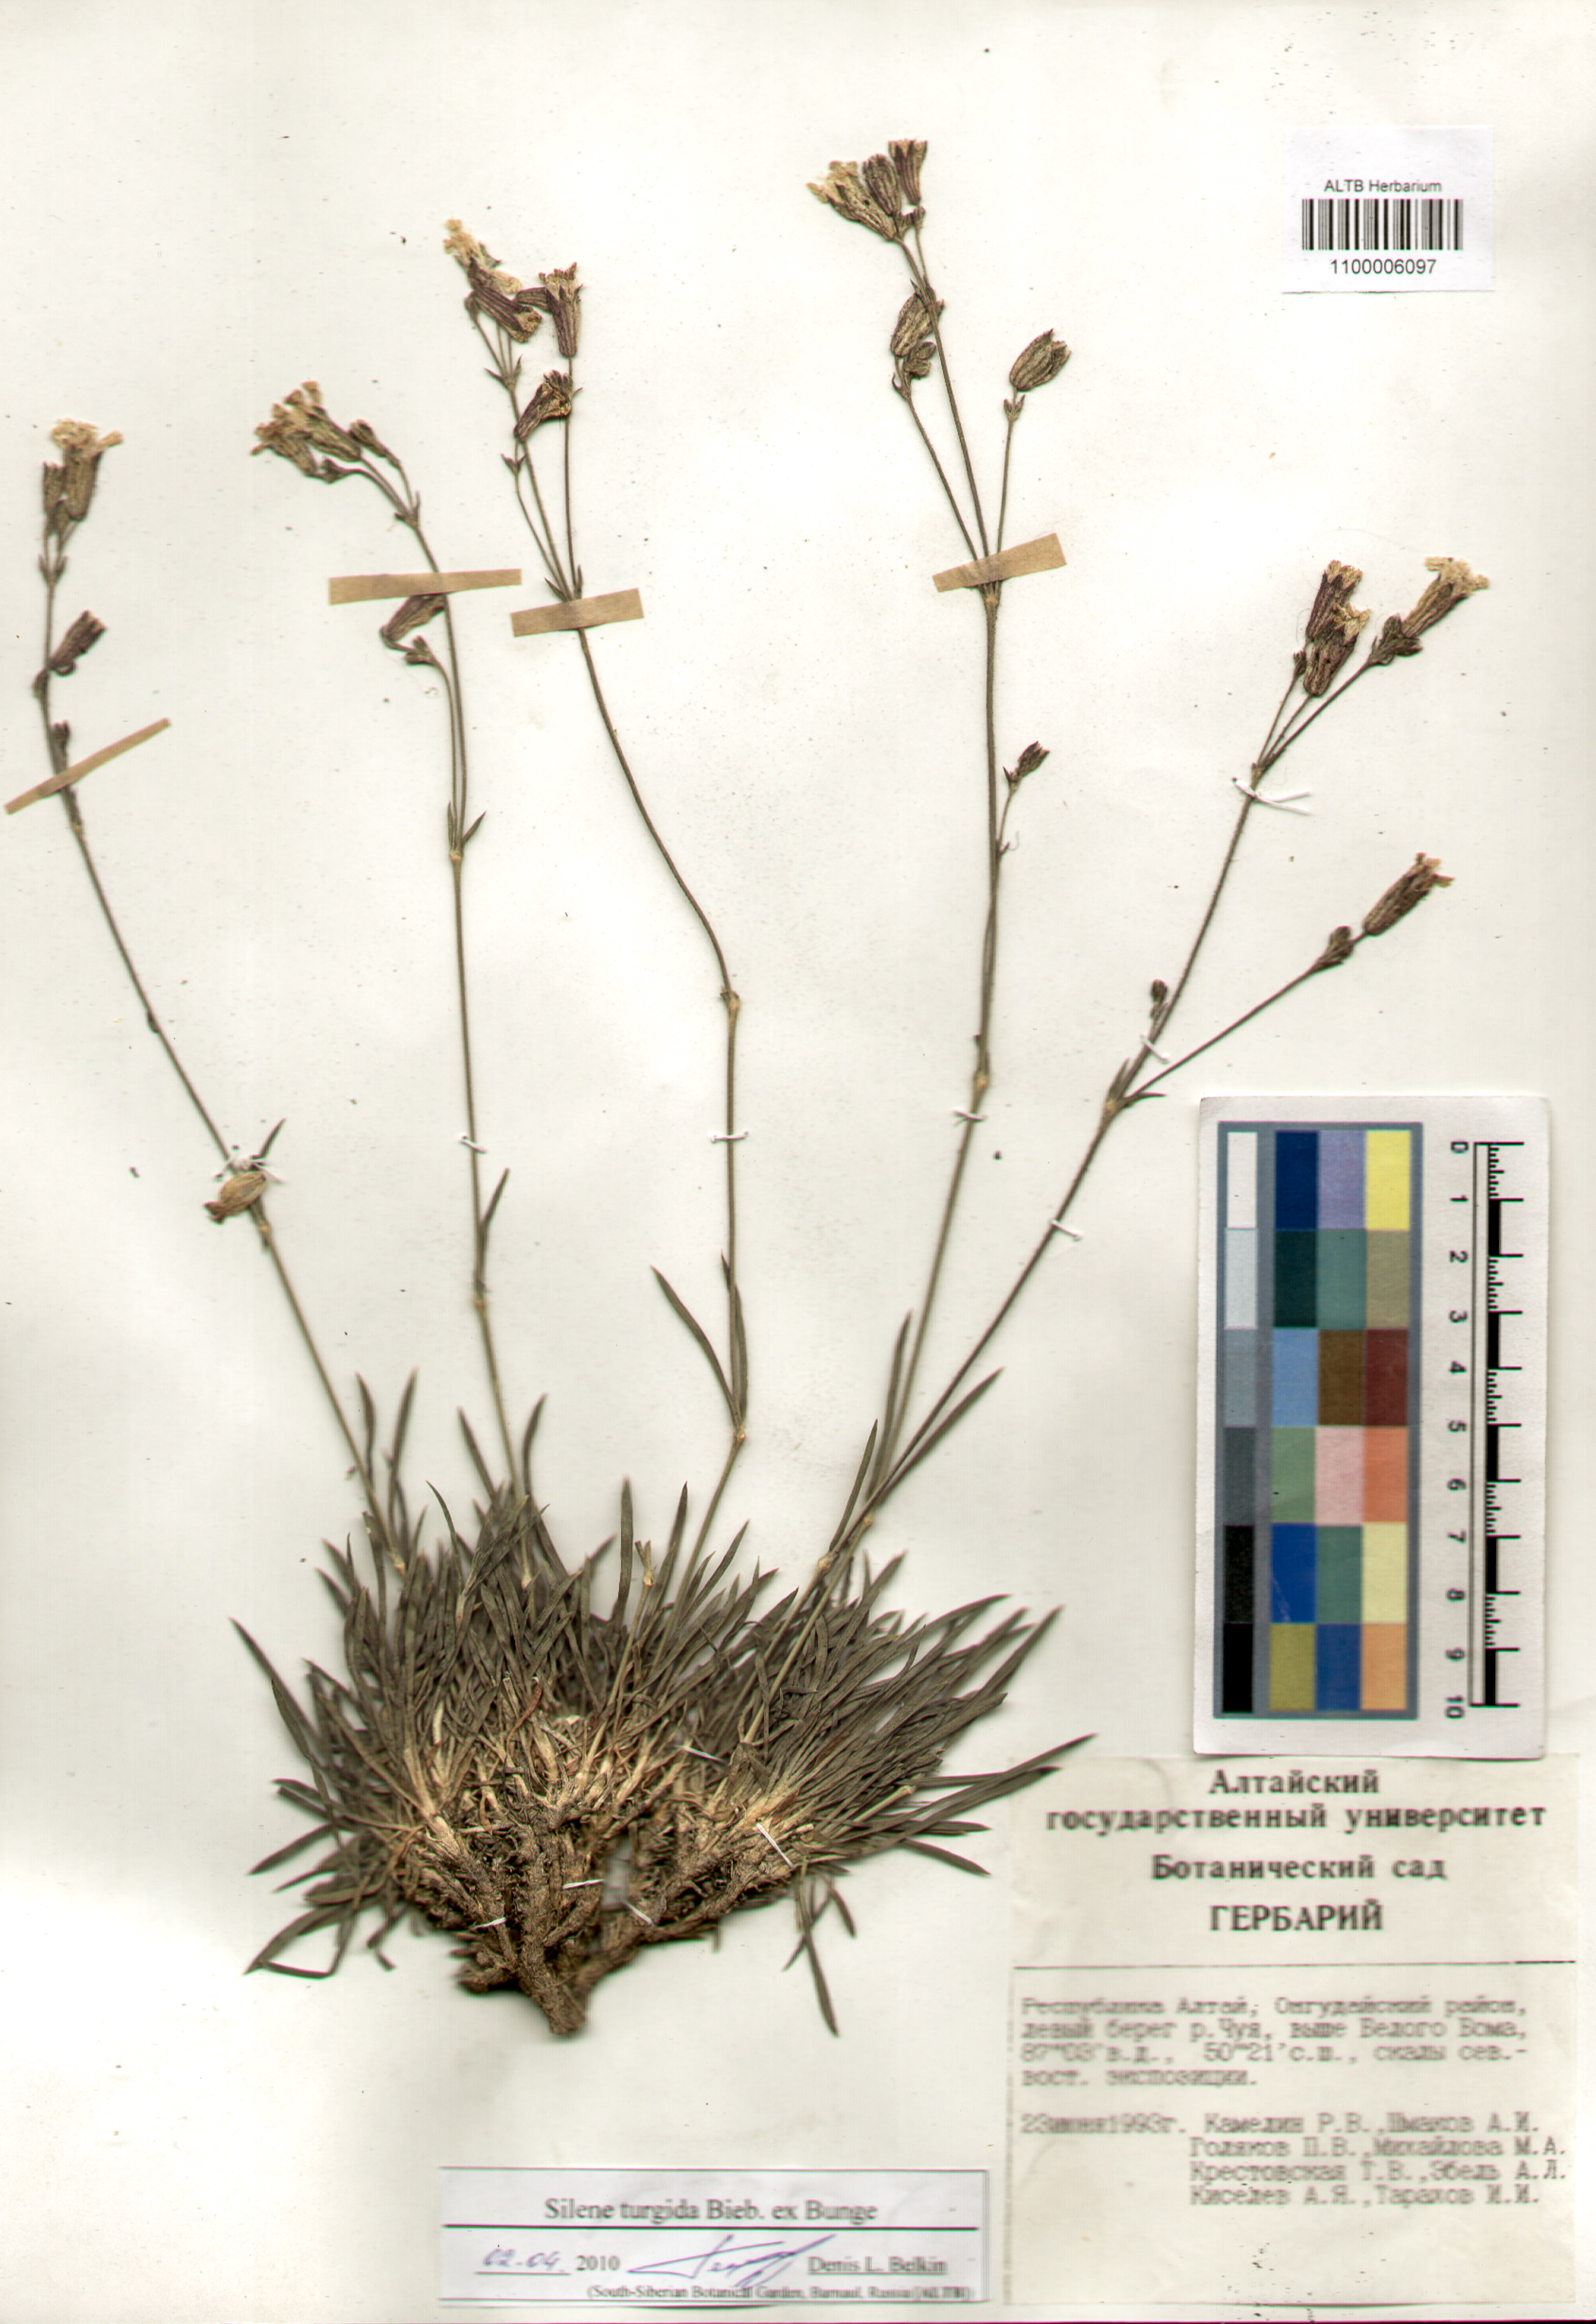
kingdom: Plantae
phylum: Tracheophyta
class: Magnoliopsida
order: Caryophyllales
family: Caryophyllaceae
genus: Silene
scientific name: Silene turgida
